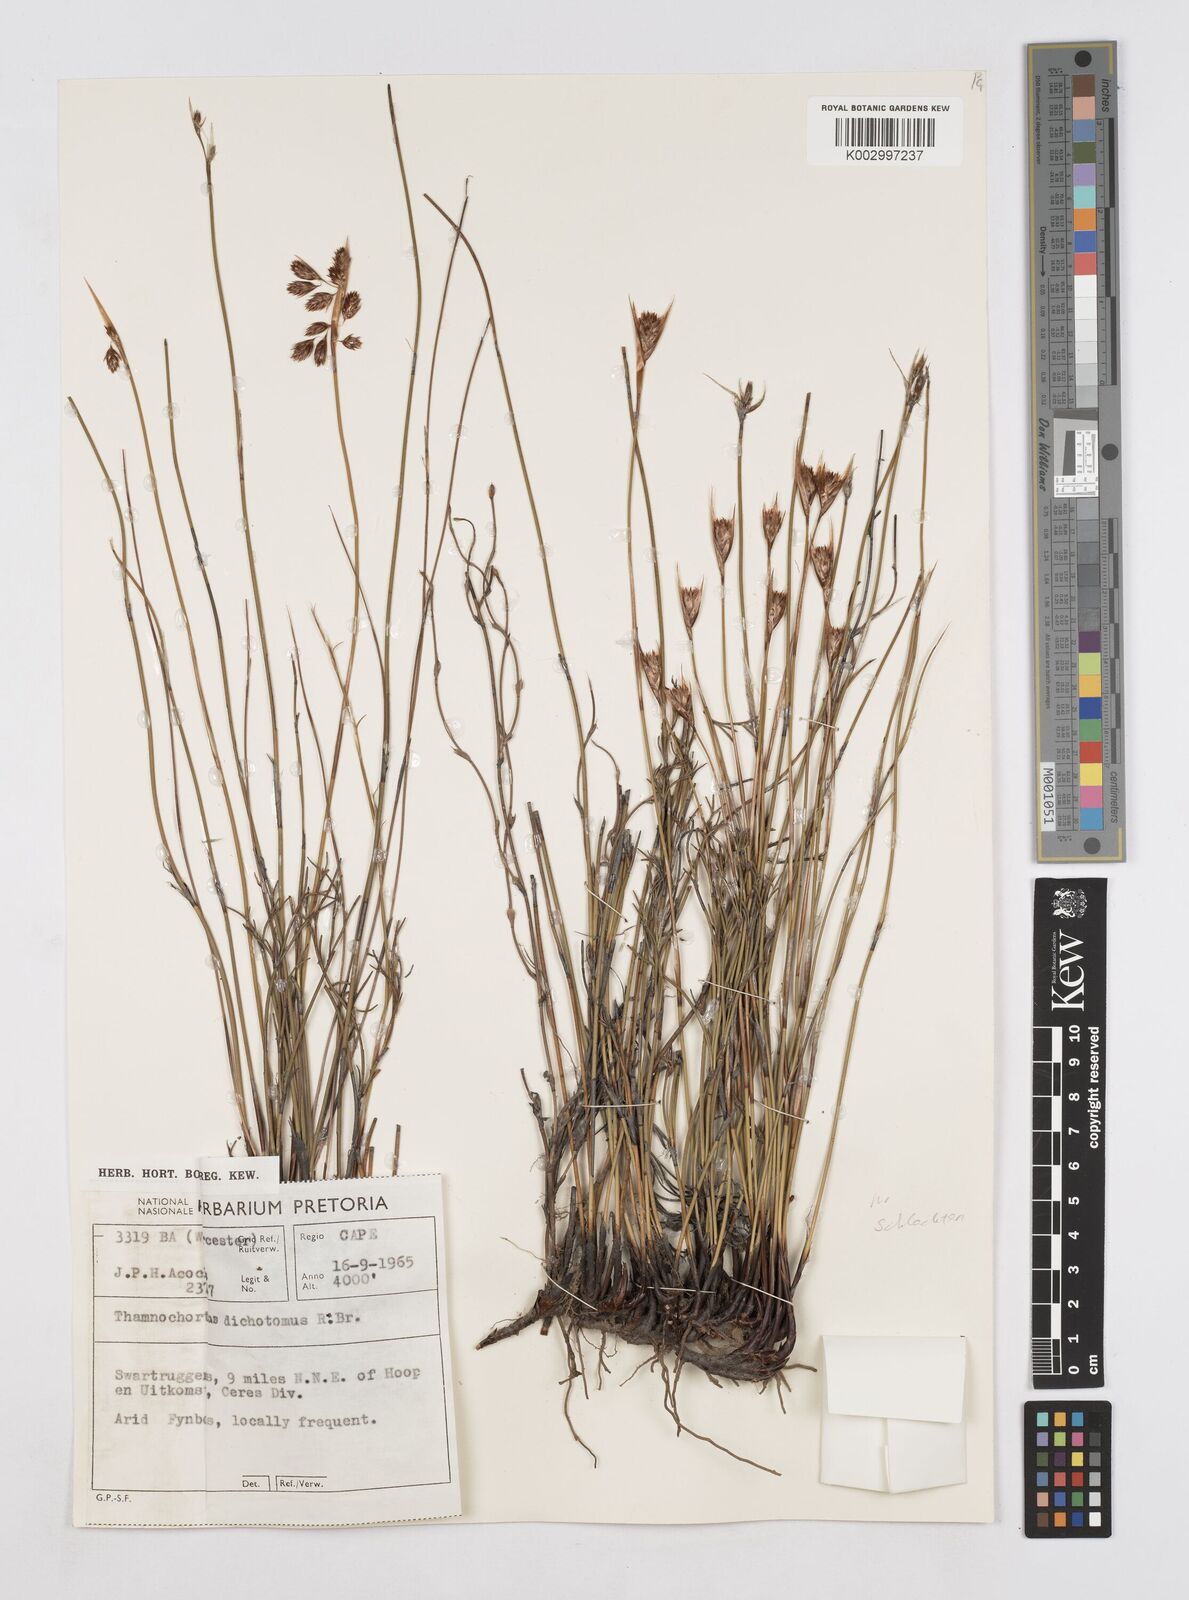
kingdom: Plantae
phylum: Tracheophyta
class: Liliopsida
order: Poales
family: Restionaceae
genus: Thamnochortus
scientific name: Thamnochortus schlechteri
